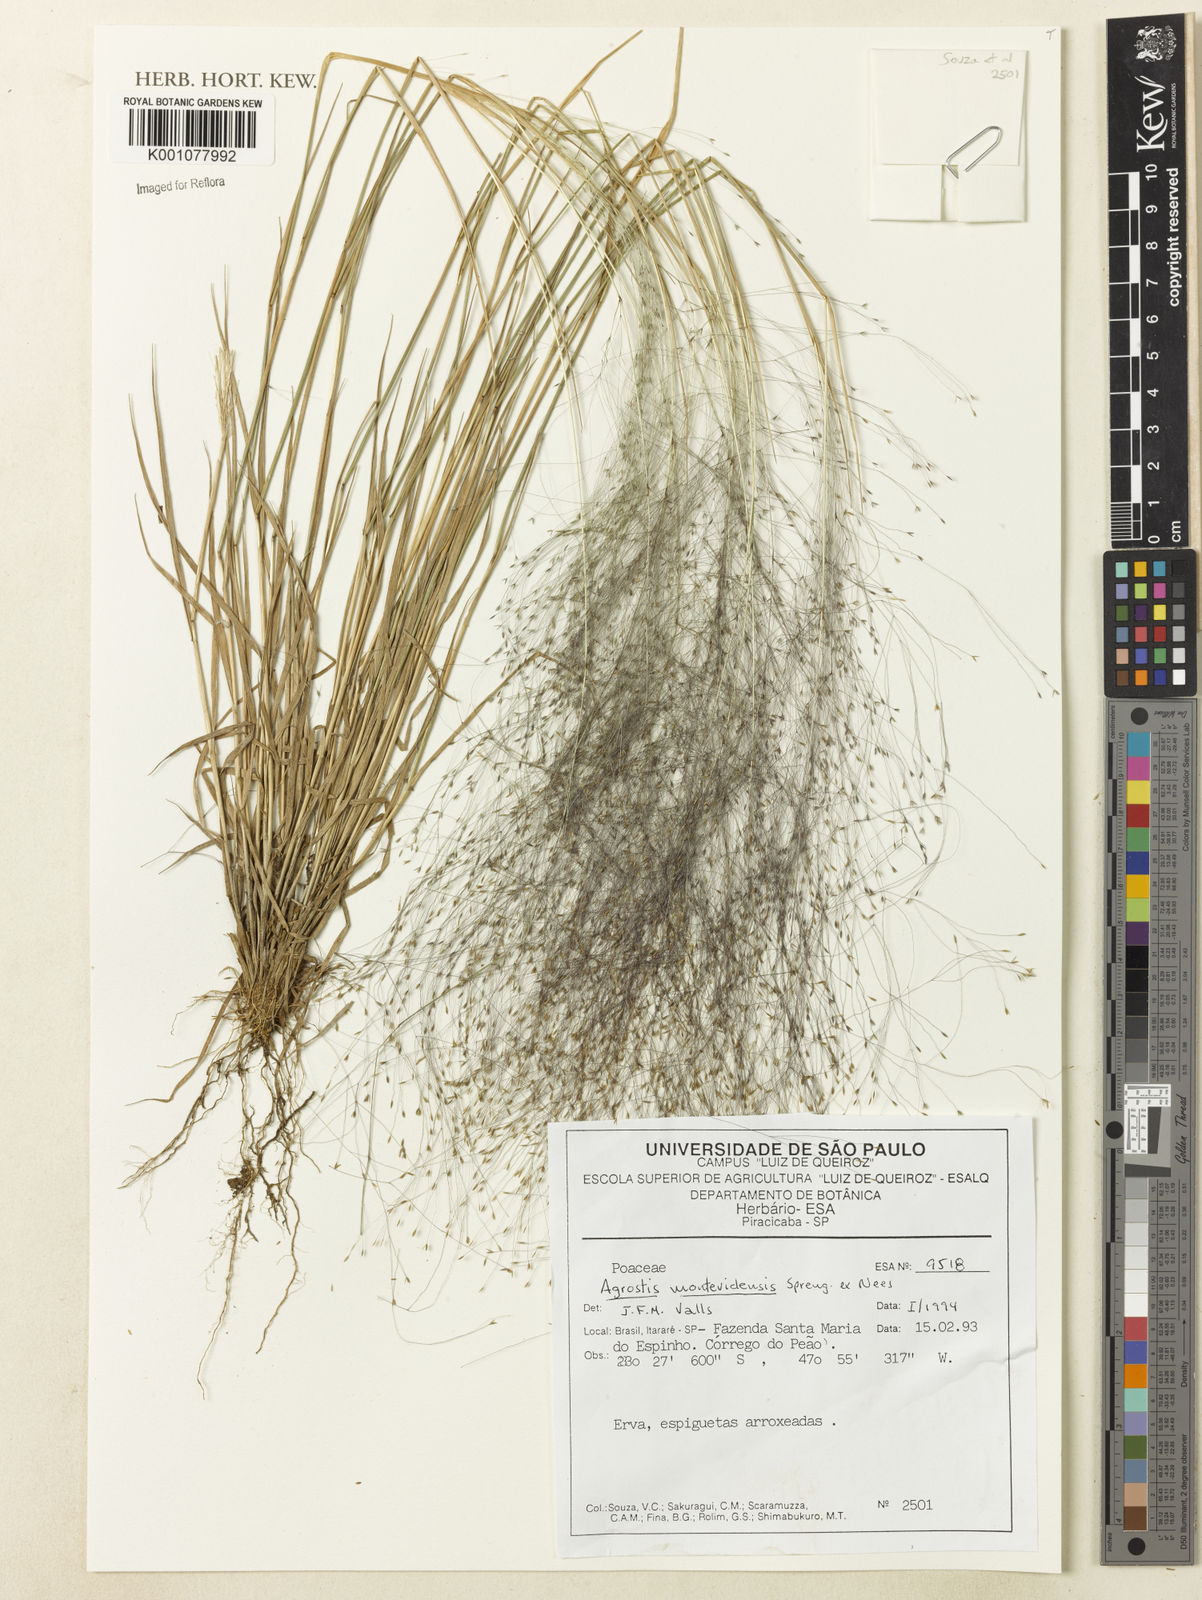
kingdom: Plantae
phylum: Tracheophyta
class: Liliopsida
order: Poales
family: Poaceae
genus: Agrostis
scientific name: Agrostis montevidensis
